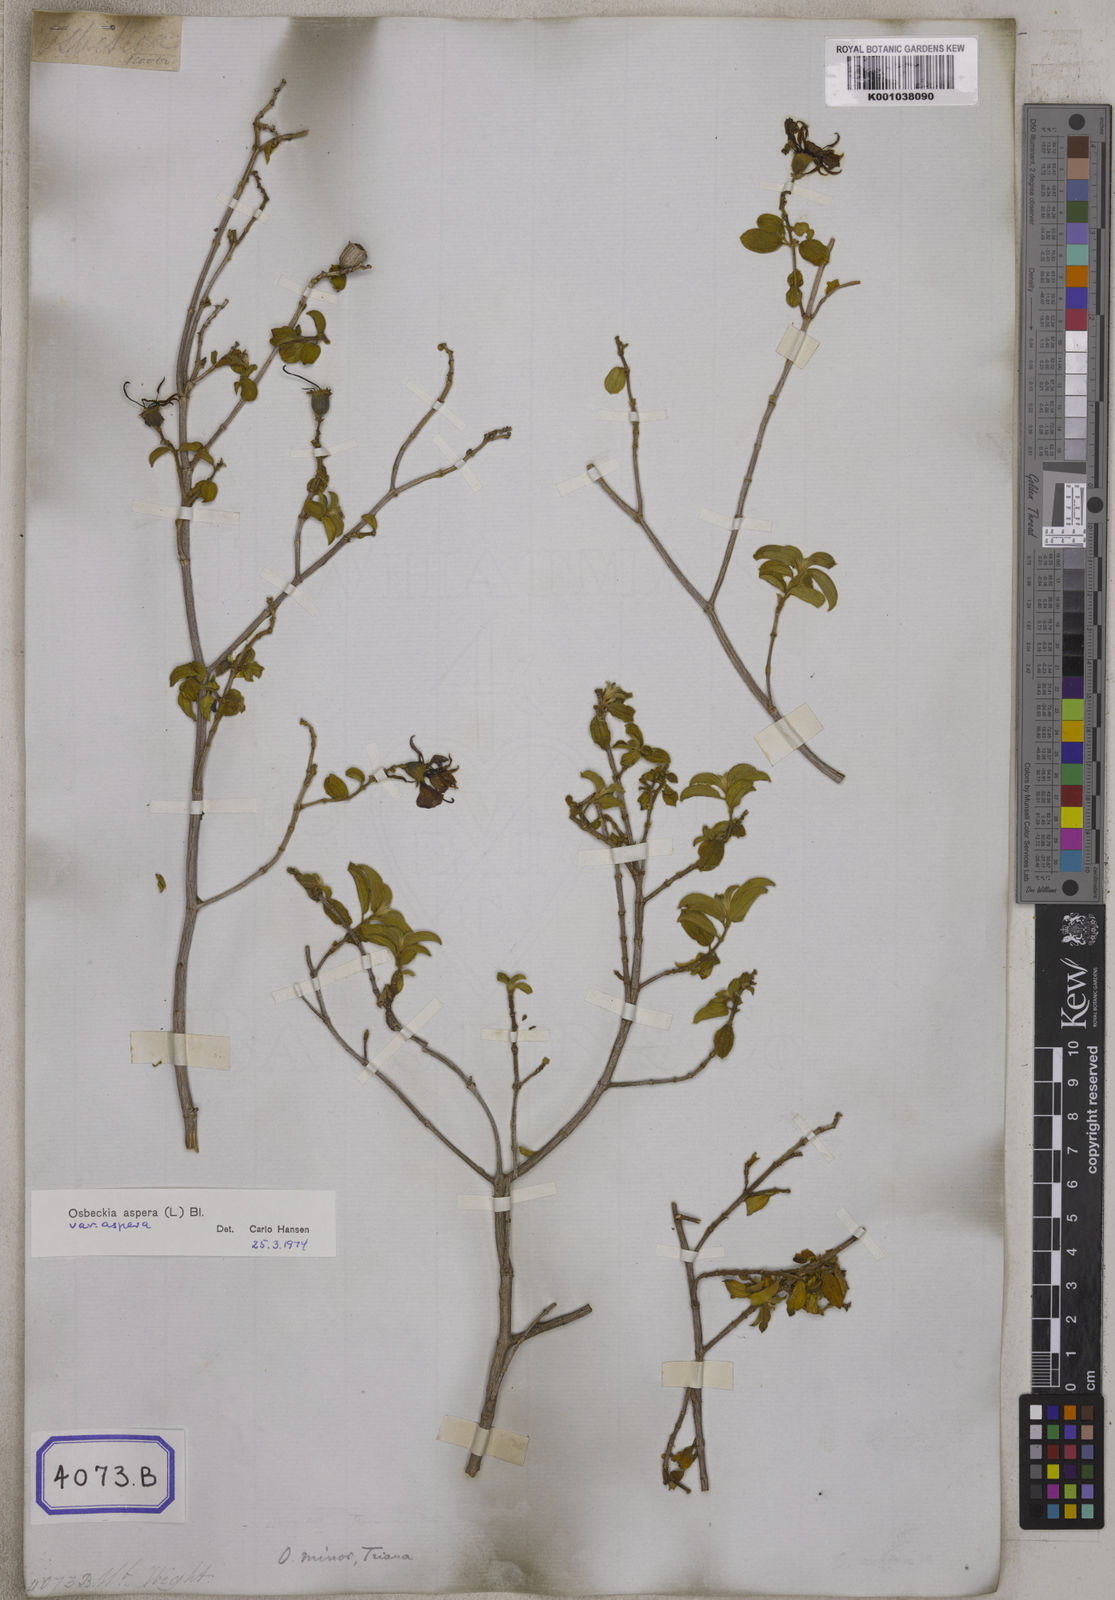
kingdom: Plantae
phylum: Tracheophyta
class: Magnoliopsida
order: Myrtales
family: Melastomataceae
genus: Osbeckia
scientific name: Osbeckia
